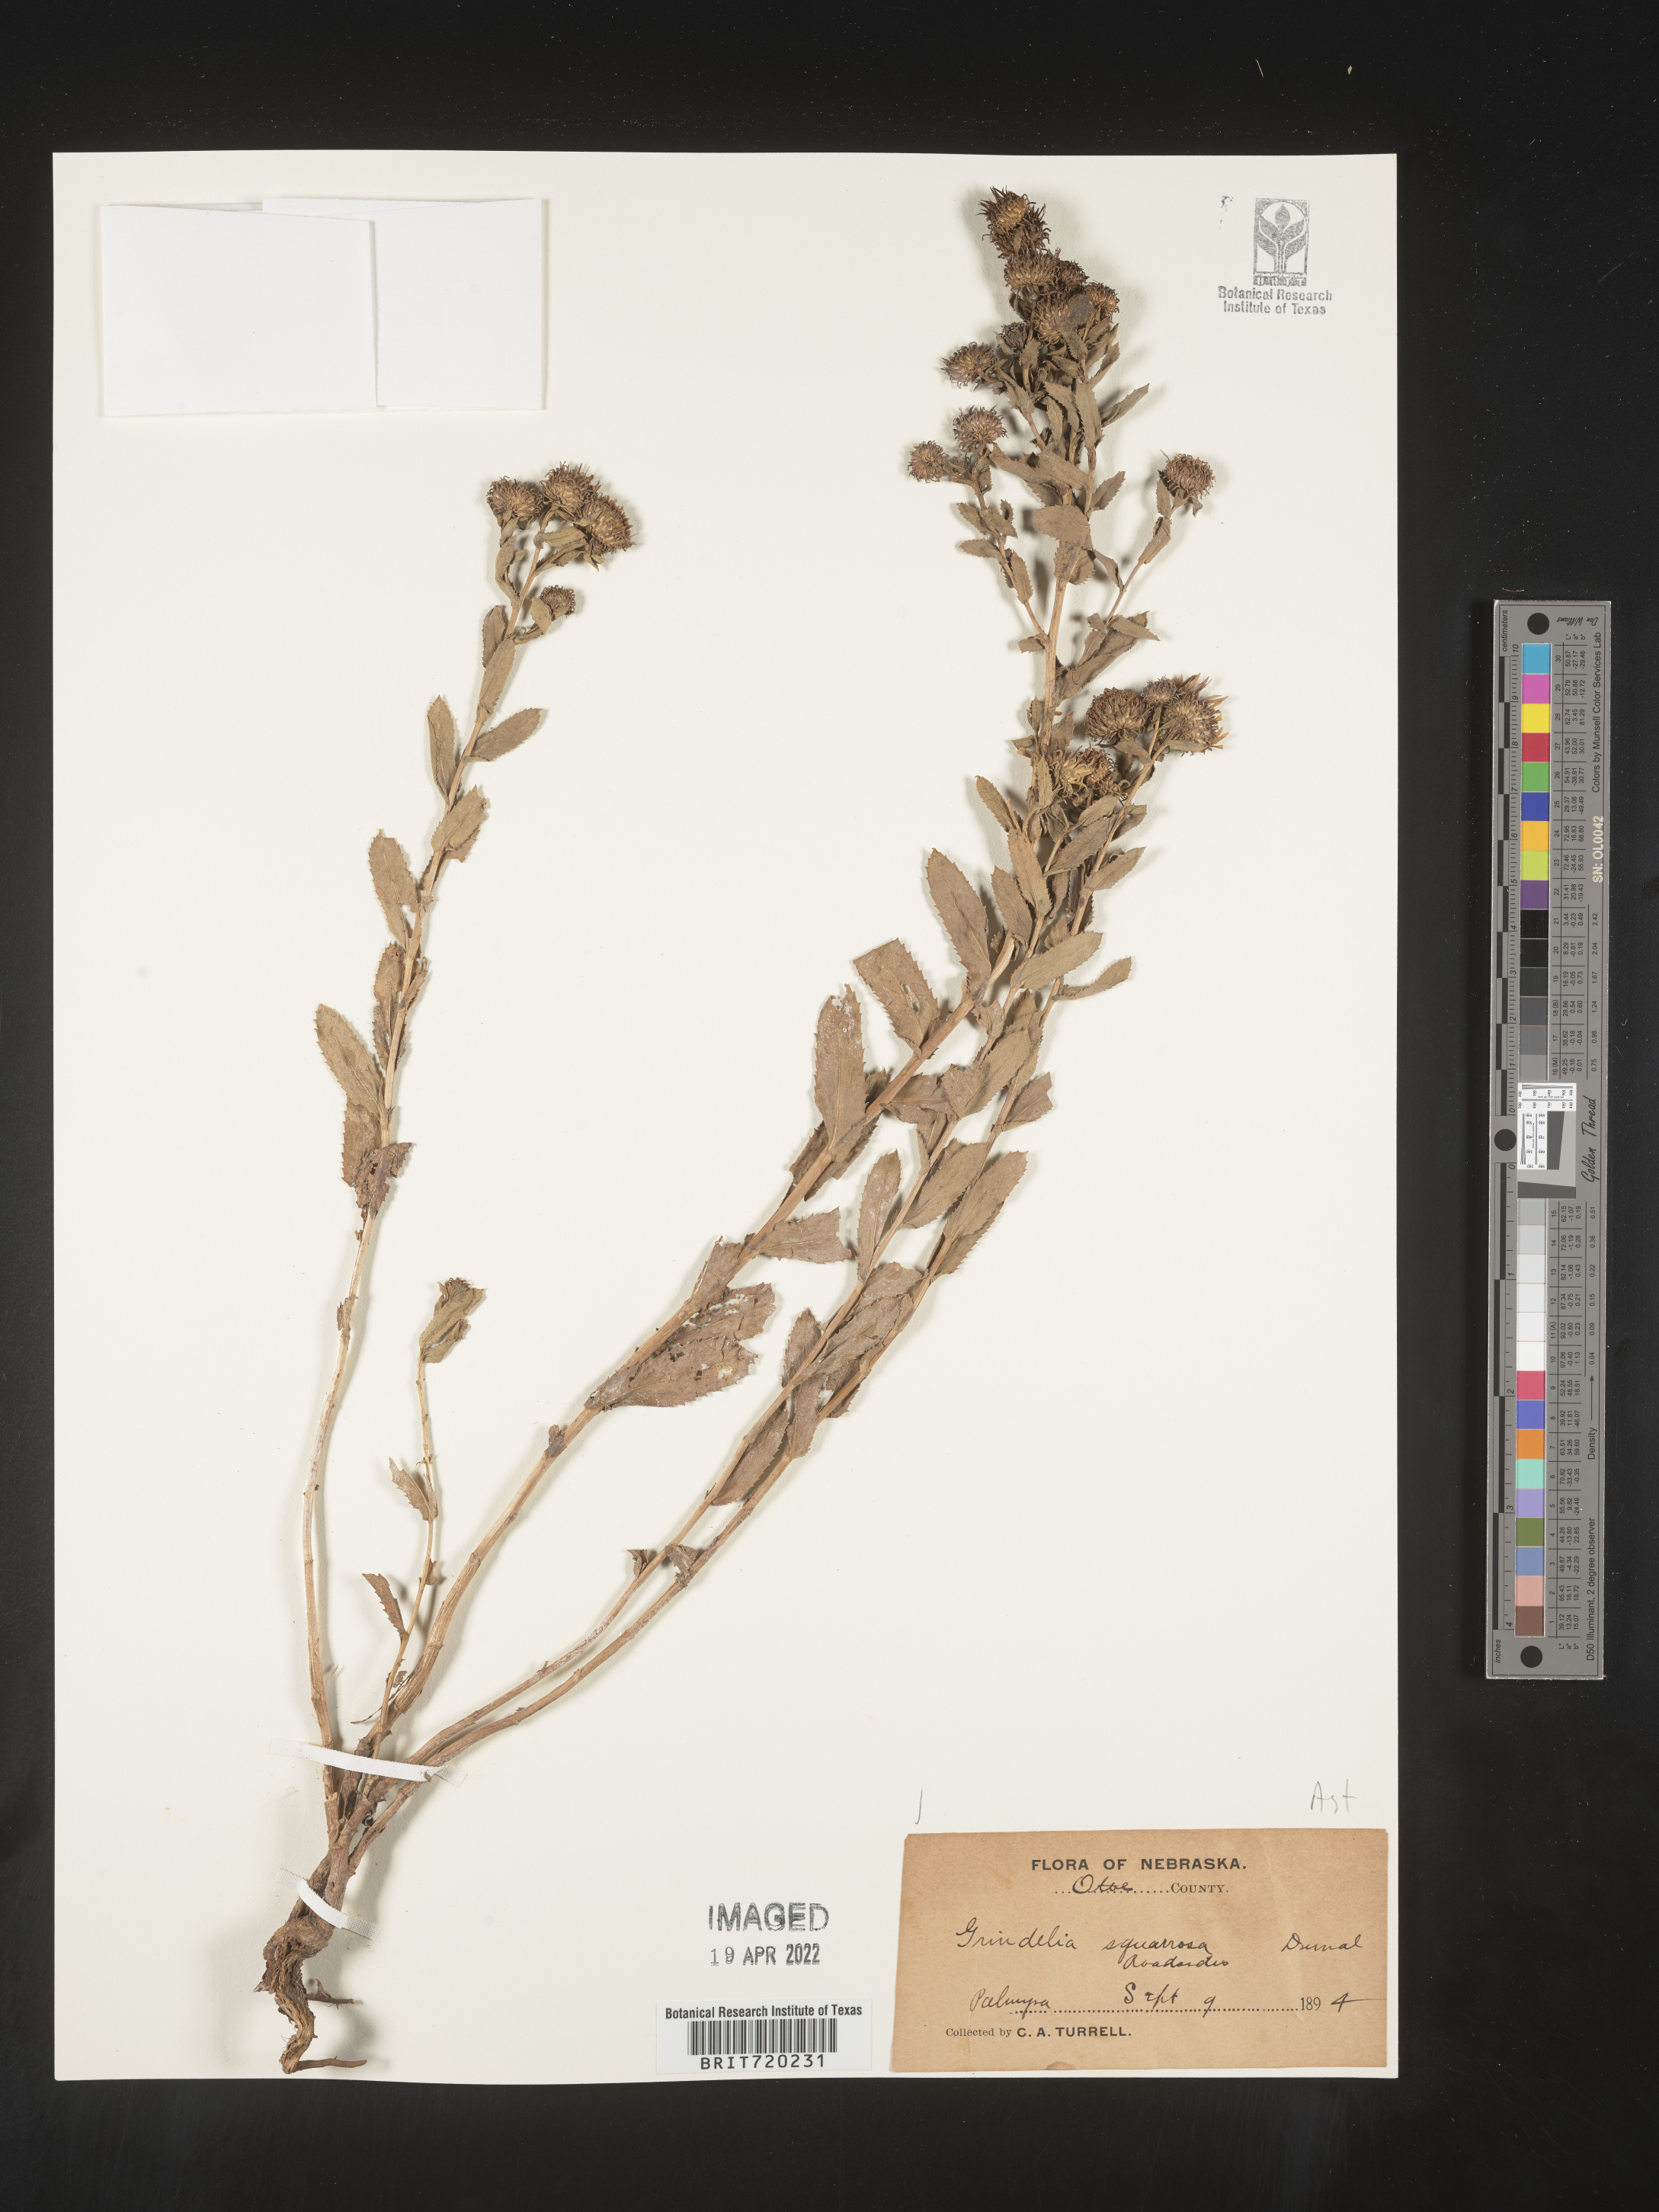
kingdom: Plantae
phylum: Tracheophyta
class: Magnoliopsida
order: Asterales
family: Asteraceae
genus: Grindelia
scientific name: Grindelia squarrosa
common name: Curly-cup gumweed
